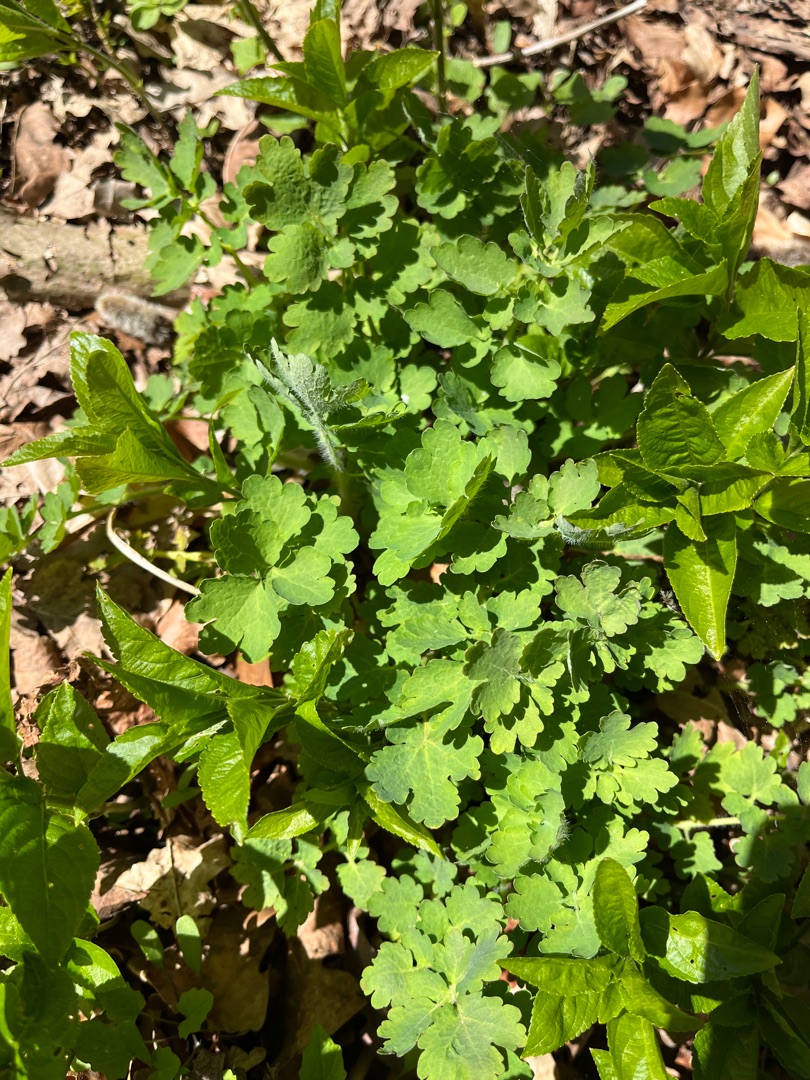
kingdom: Plantae
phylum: Tracheophyta
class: Magnoliopsida
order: Ranunculales
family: Papaveraceae
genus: Chelidonium
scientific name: Chelidonium majus
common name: Svaleurt
